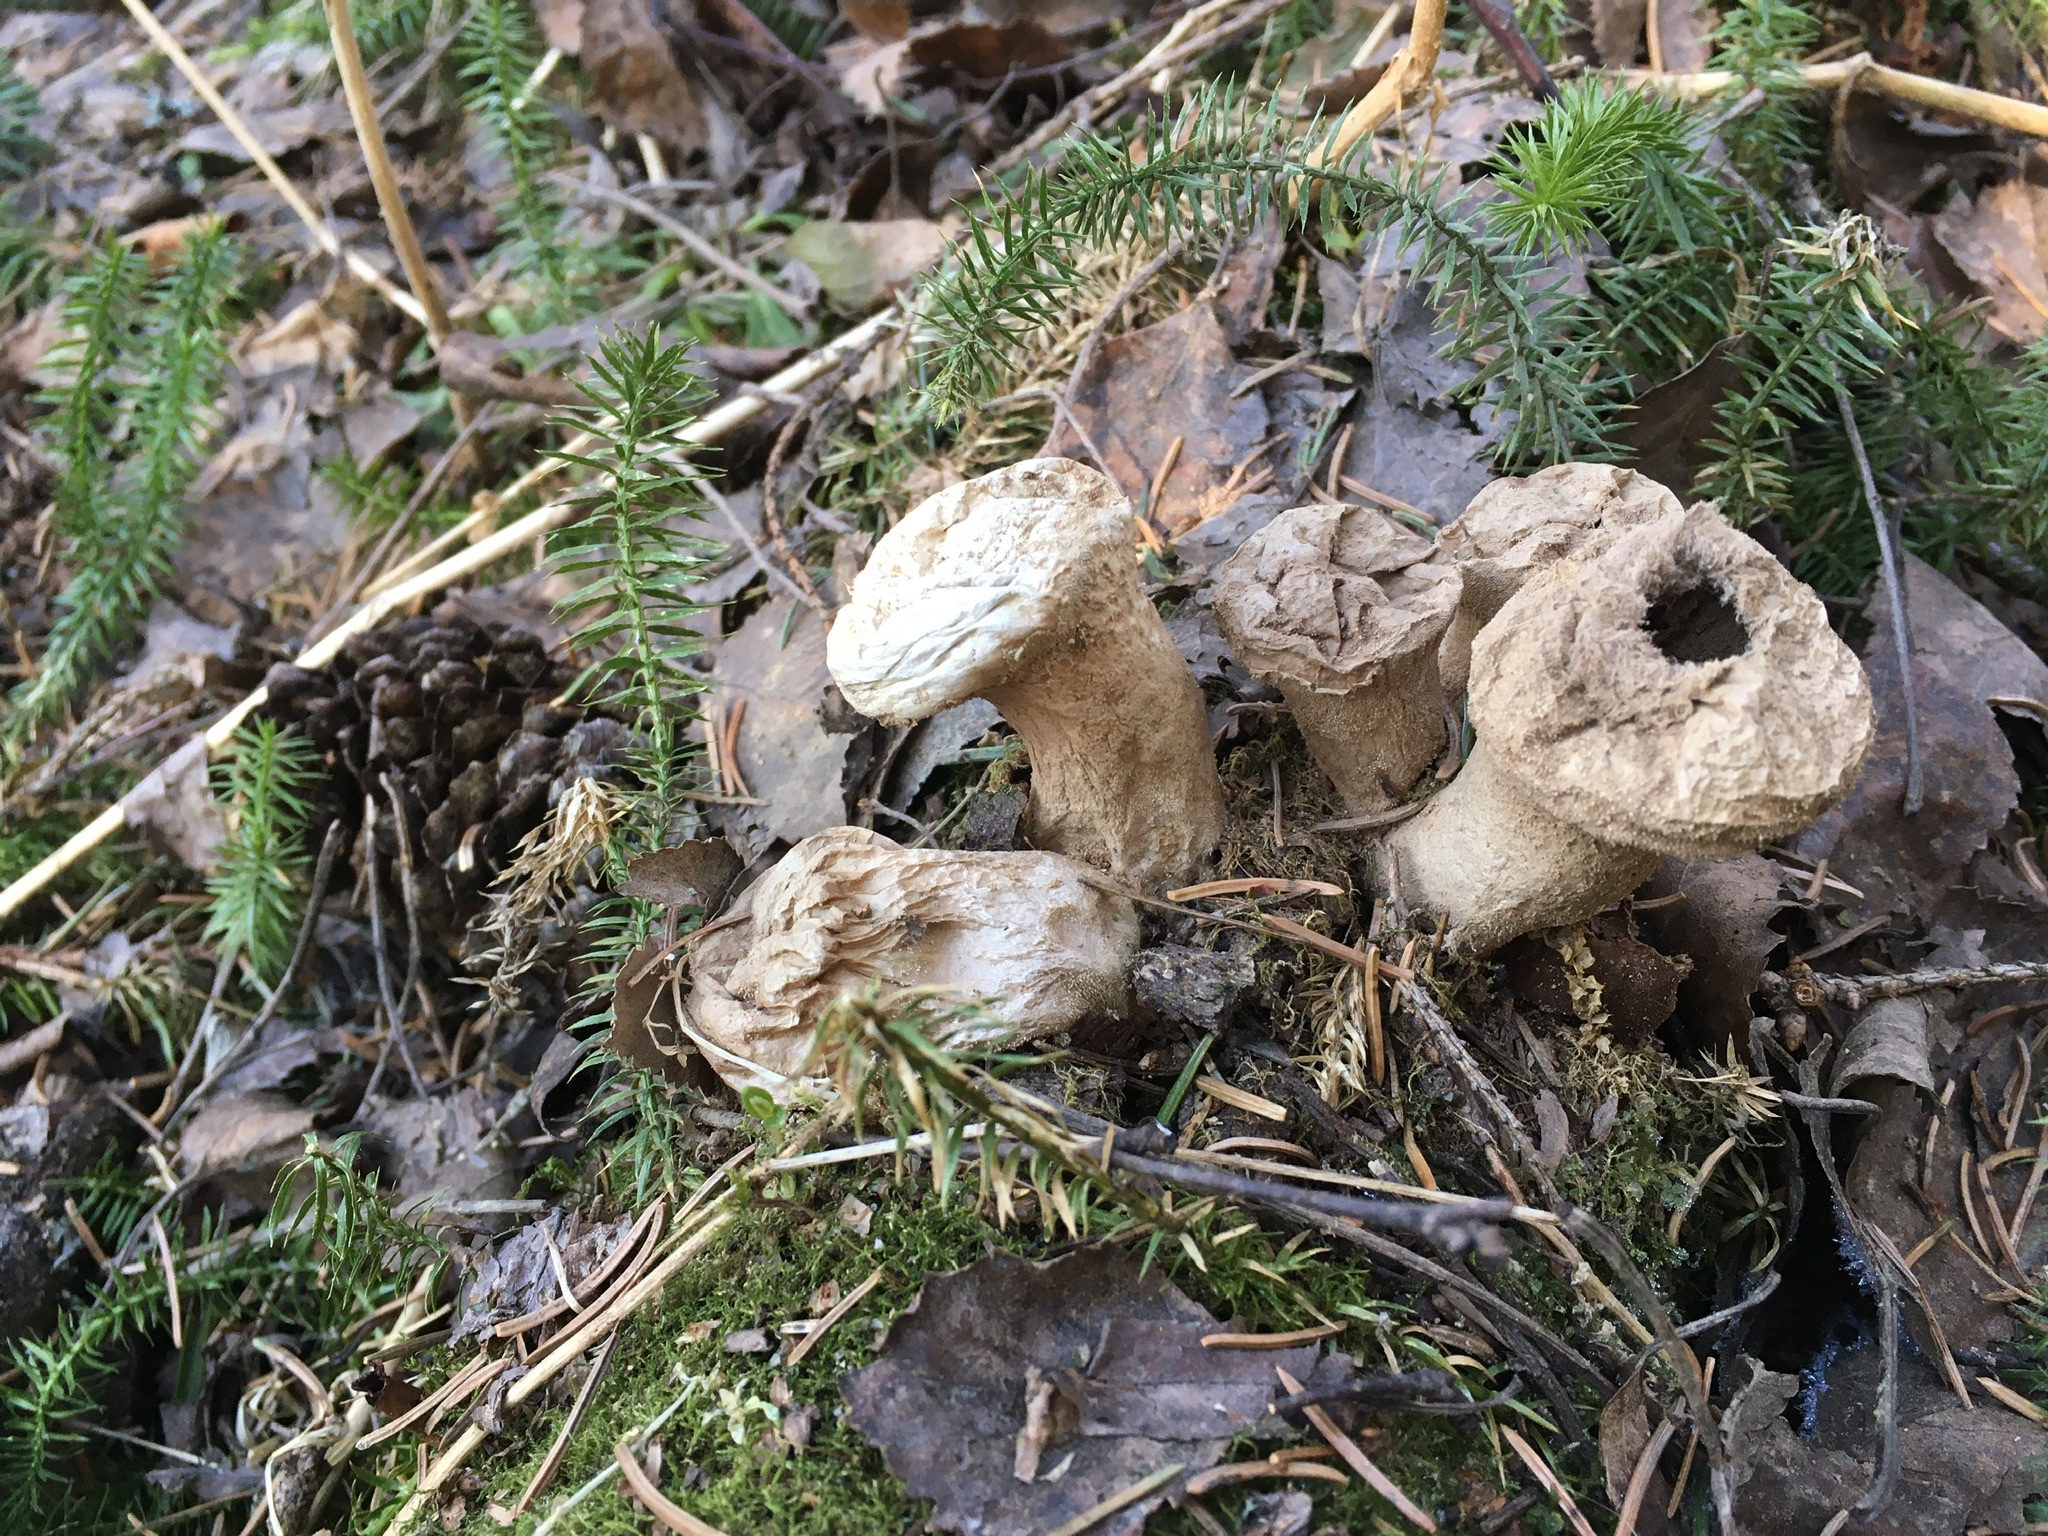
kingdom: Fungi
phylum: Basidiomycota
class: Agaricomycetes
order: Agaricales
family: Lycoperdaceae
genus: Apioperdon
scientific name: Apioperdon pyriforme
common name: Pear-shaped puffball
